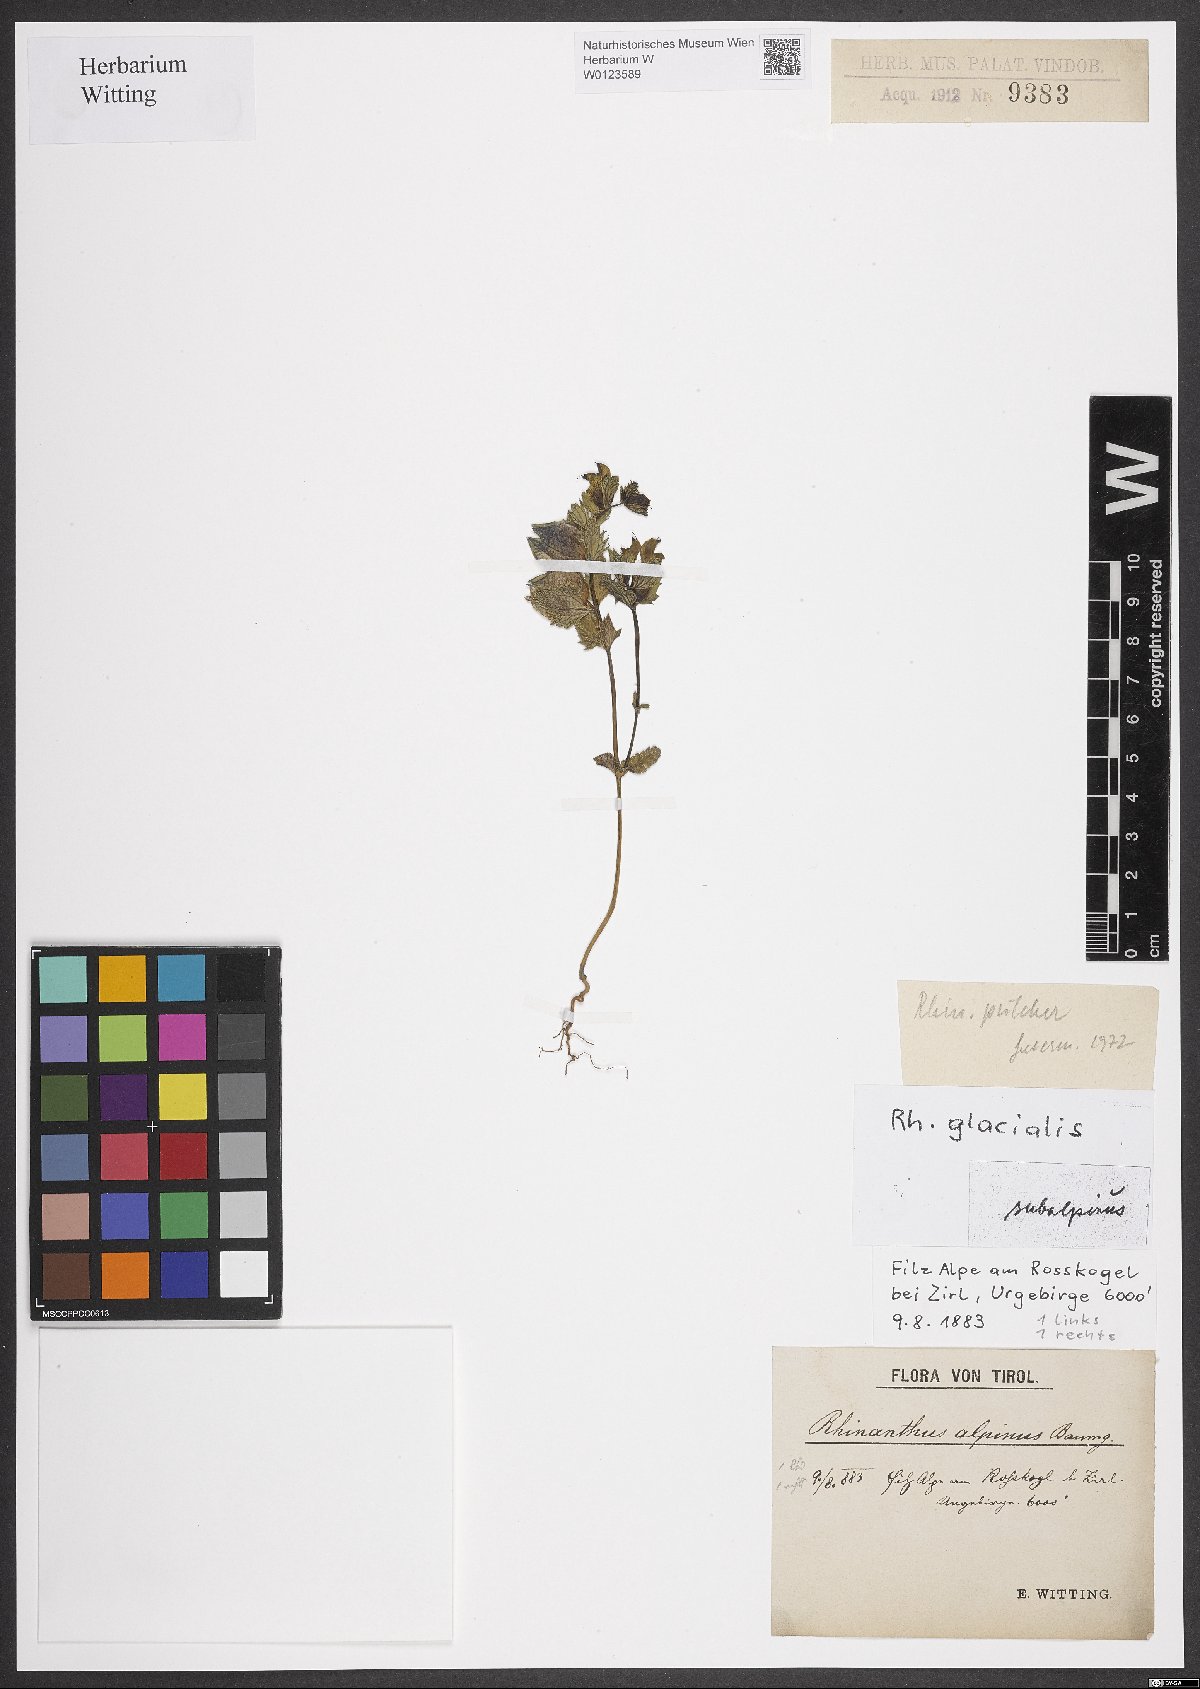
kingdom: Plantae
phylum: Tracheophyta
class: Magnoliopsida
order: Lamiales
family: Orobanchaceae
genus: Rhinanthus
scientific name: Rhinanthus glacialis
